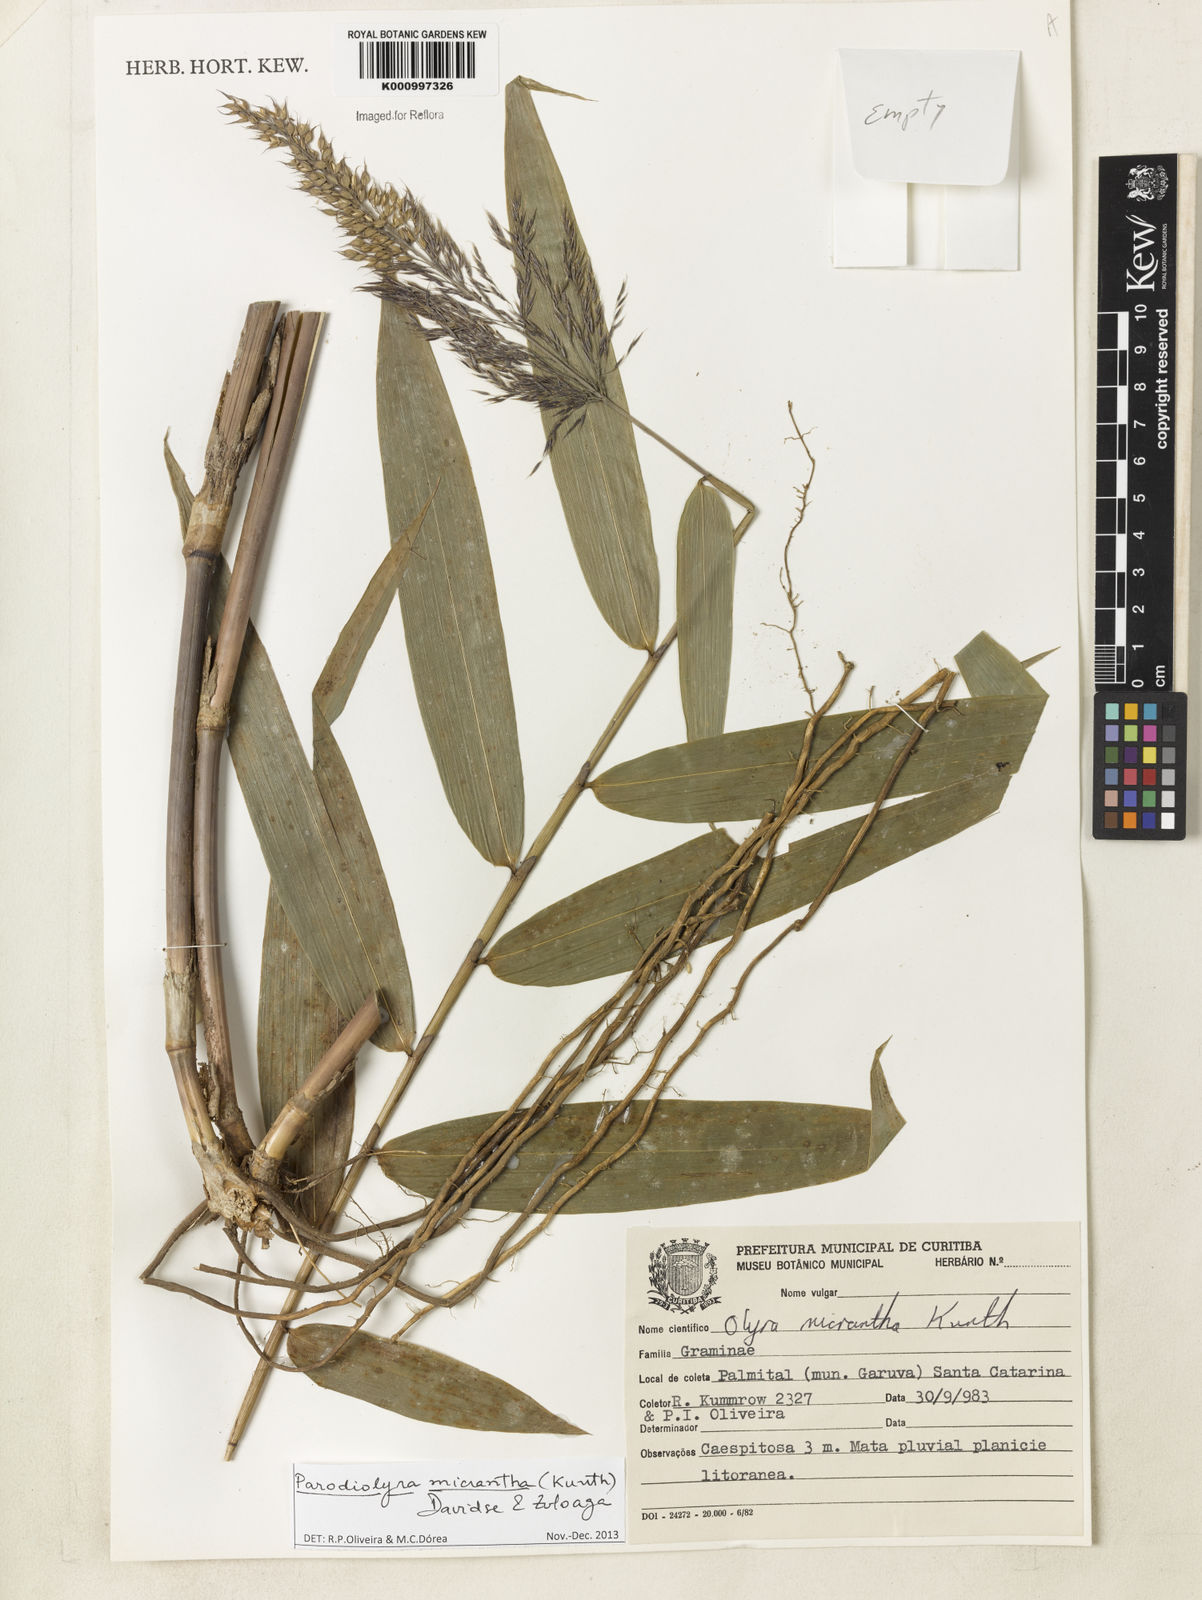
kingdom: Plantae
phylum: Tracheophyta
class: Liliopsida
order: Poales
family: Poaceae
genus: Taquara
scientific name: Taquara micrantha
